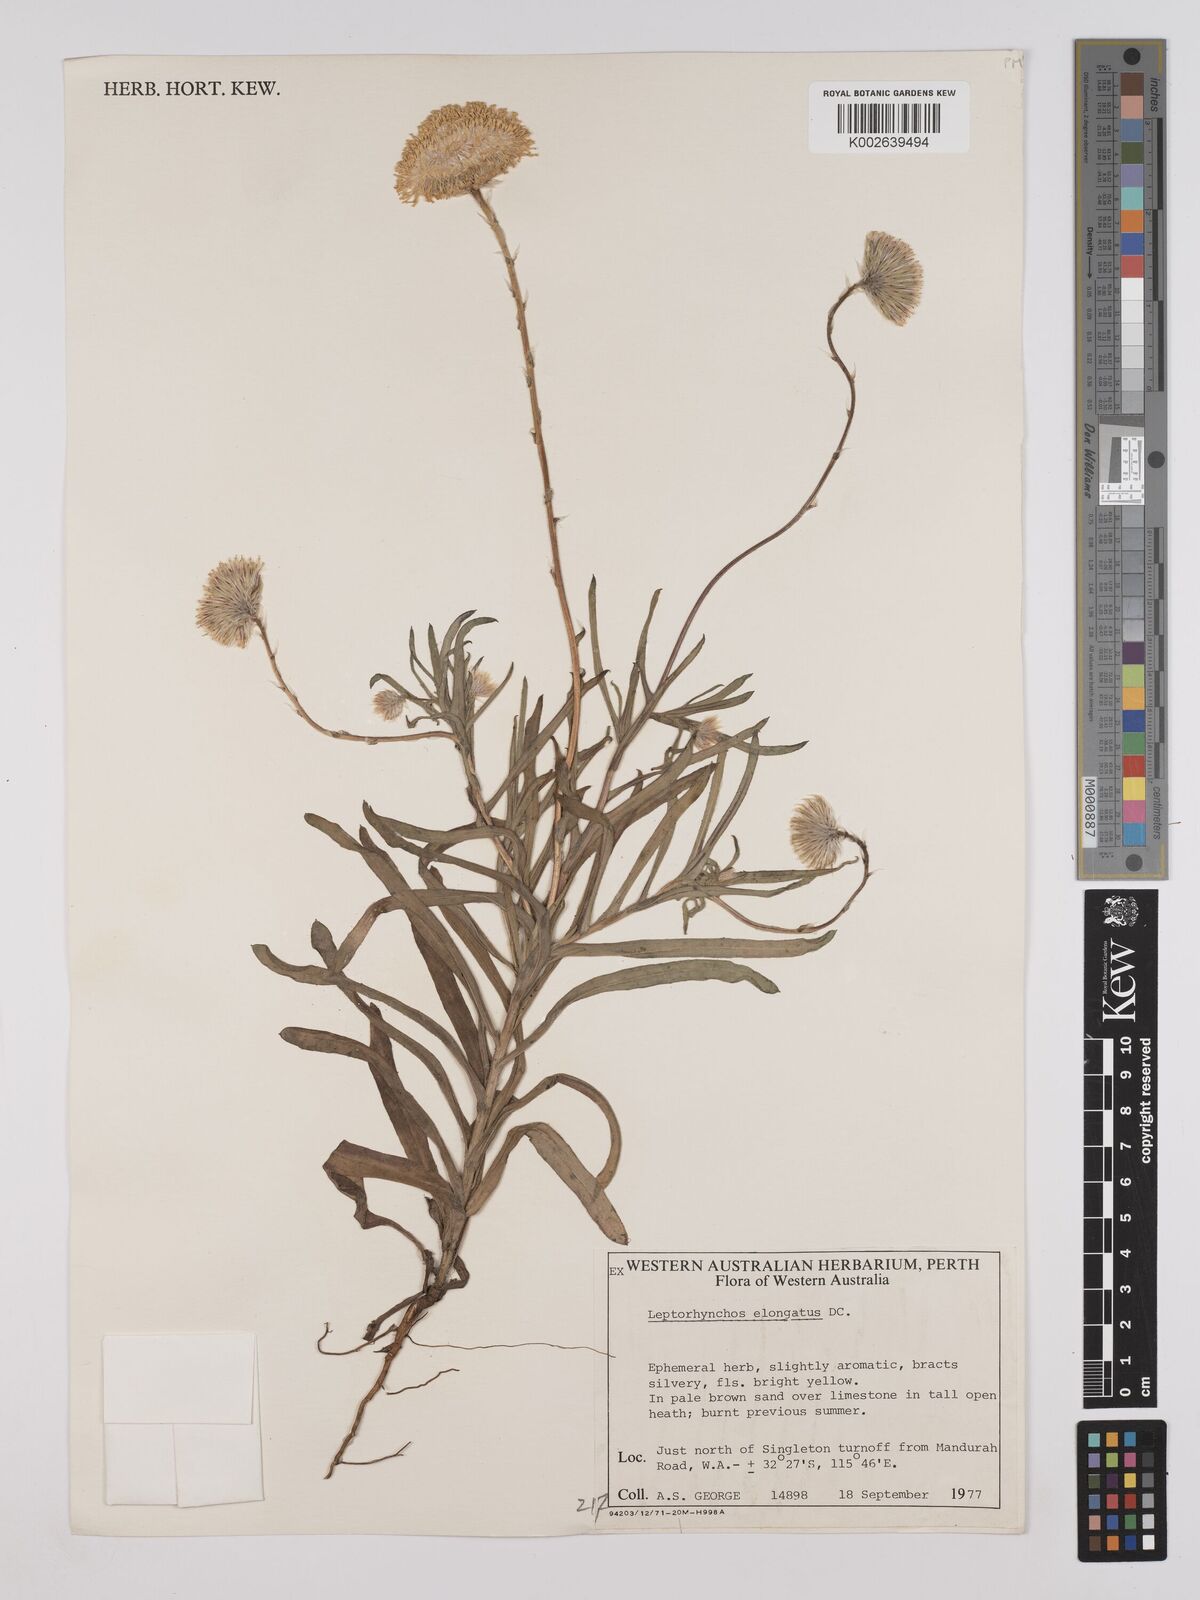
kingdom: Plantae
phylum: Tracheophyta
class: Magnoliopsida
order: Asterales
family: Asteraceae
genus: Leptorhynchos
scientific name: Leptorhynchos elongatus
